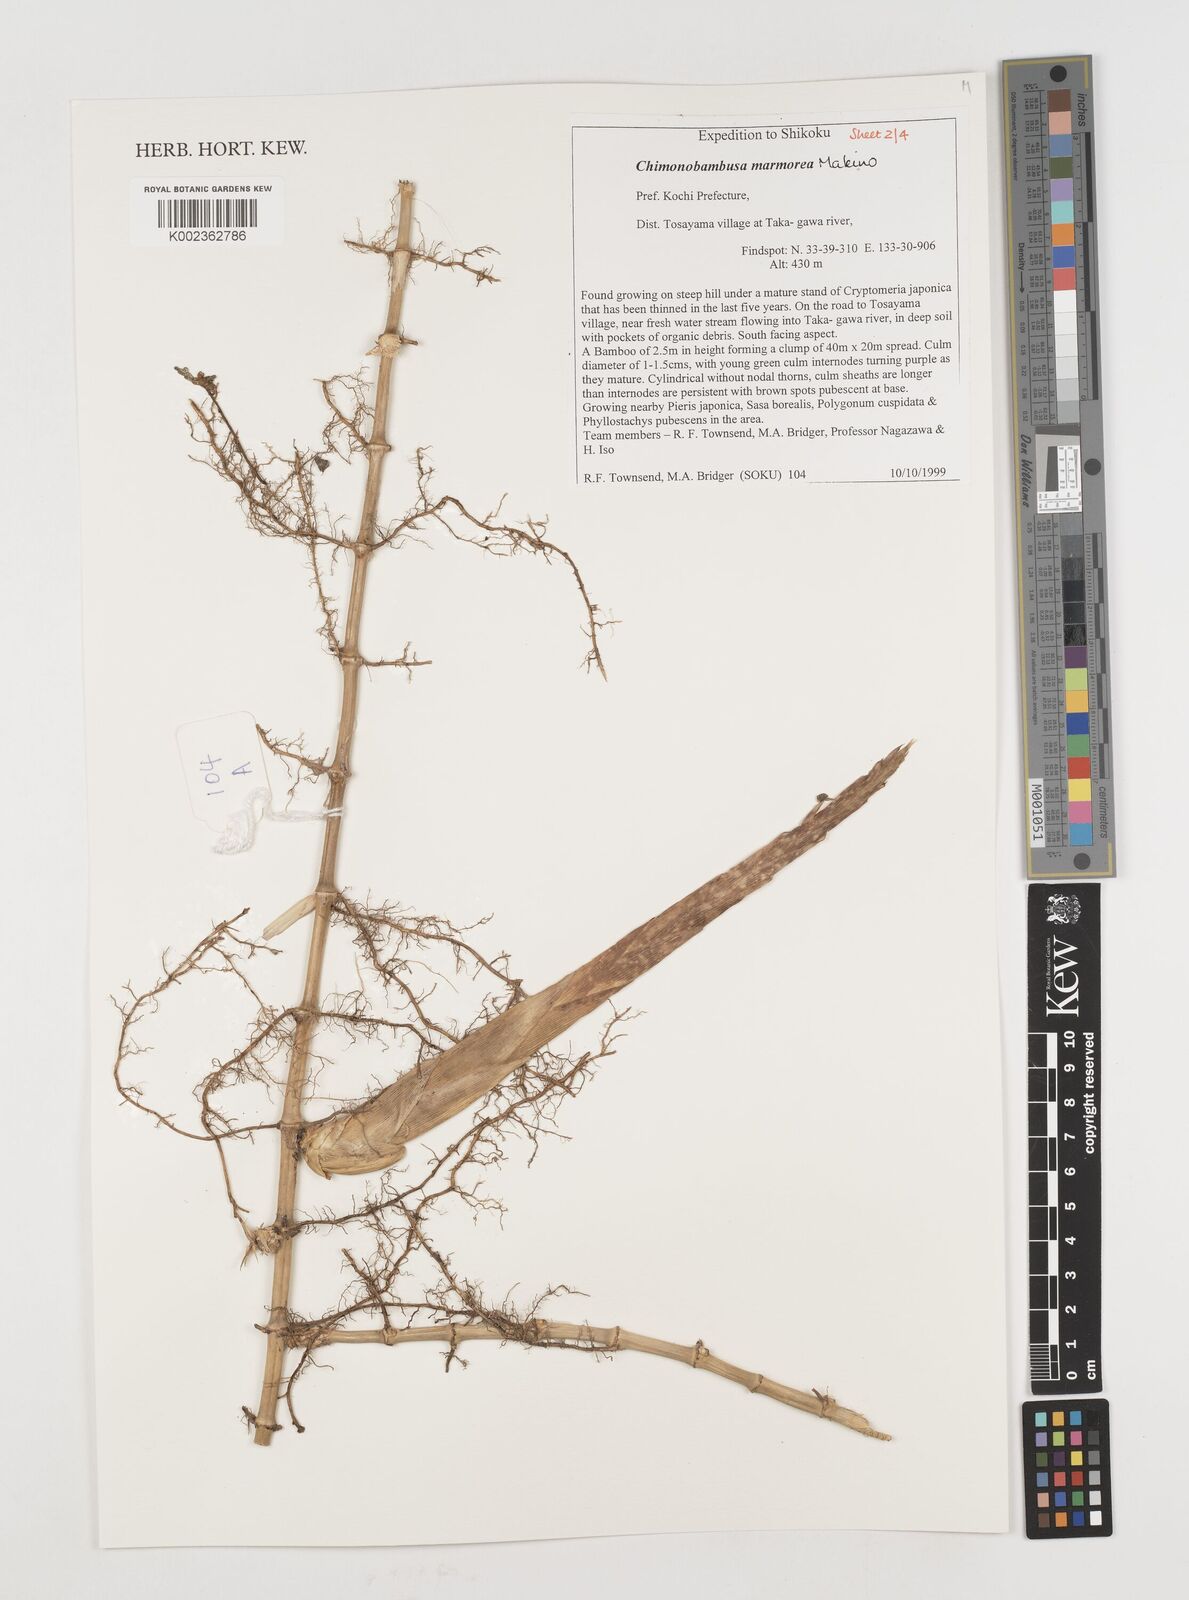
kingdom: Plantae
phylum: Tracheophyta
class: Liliopsida
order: Poales
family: Poaceae
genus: Chimonobambusa
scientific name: Chimonobambusa marmorea
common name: Marbled bamboo
